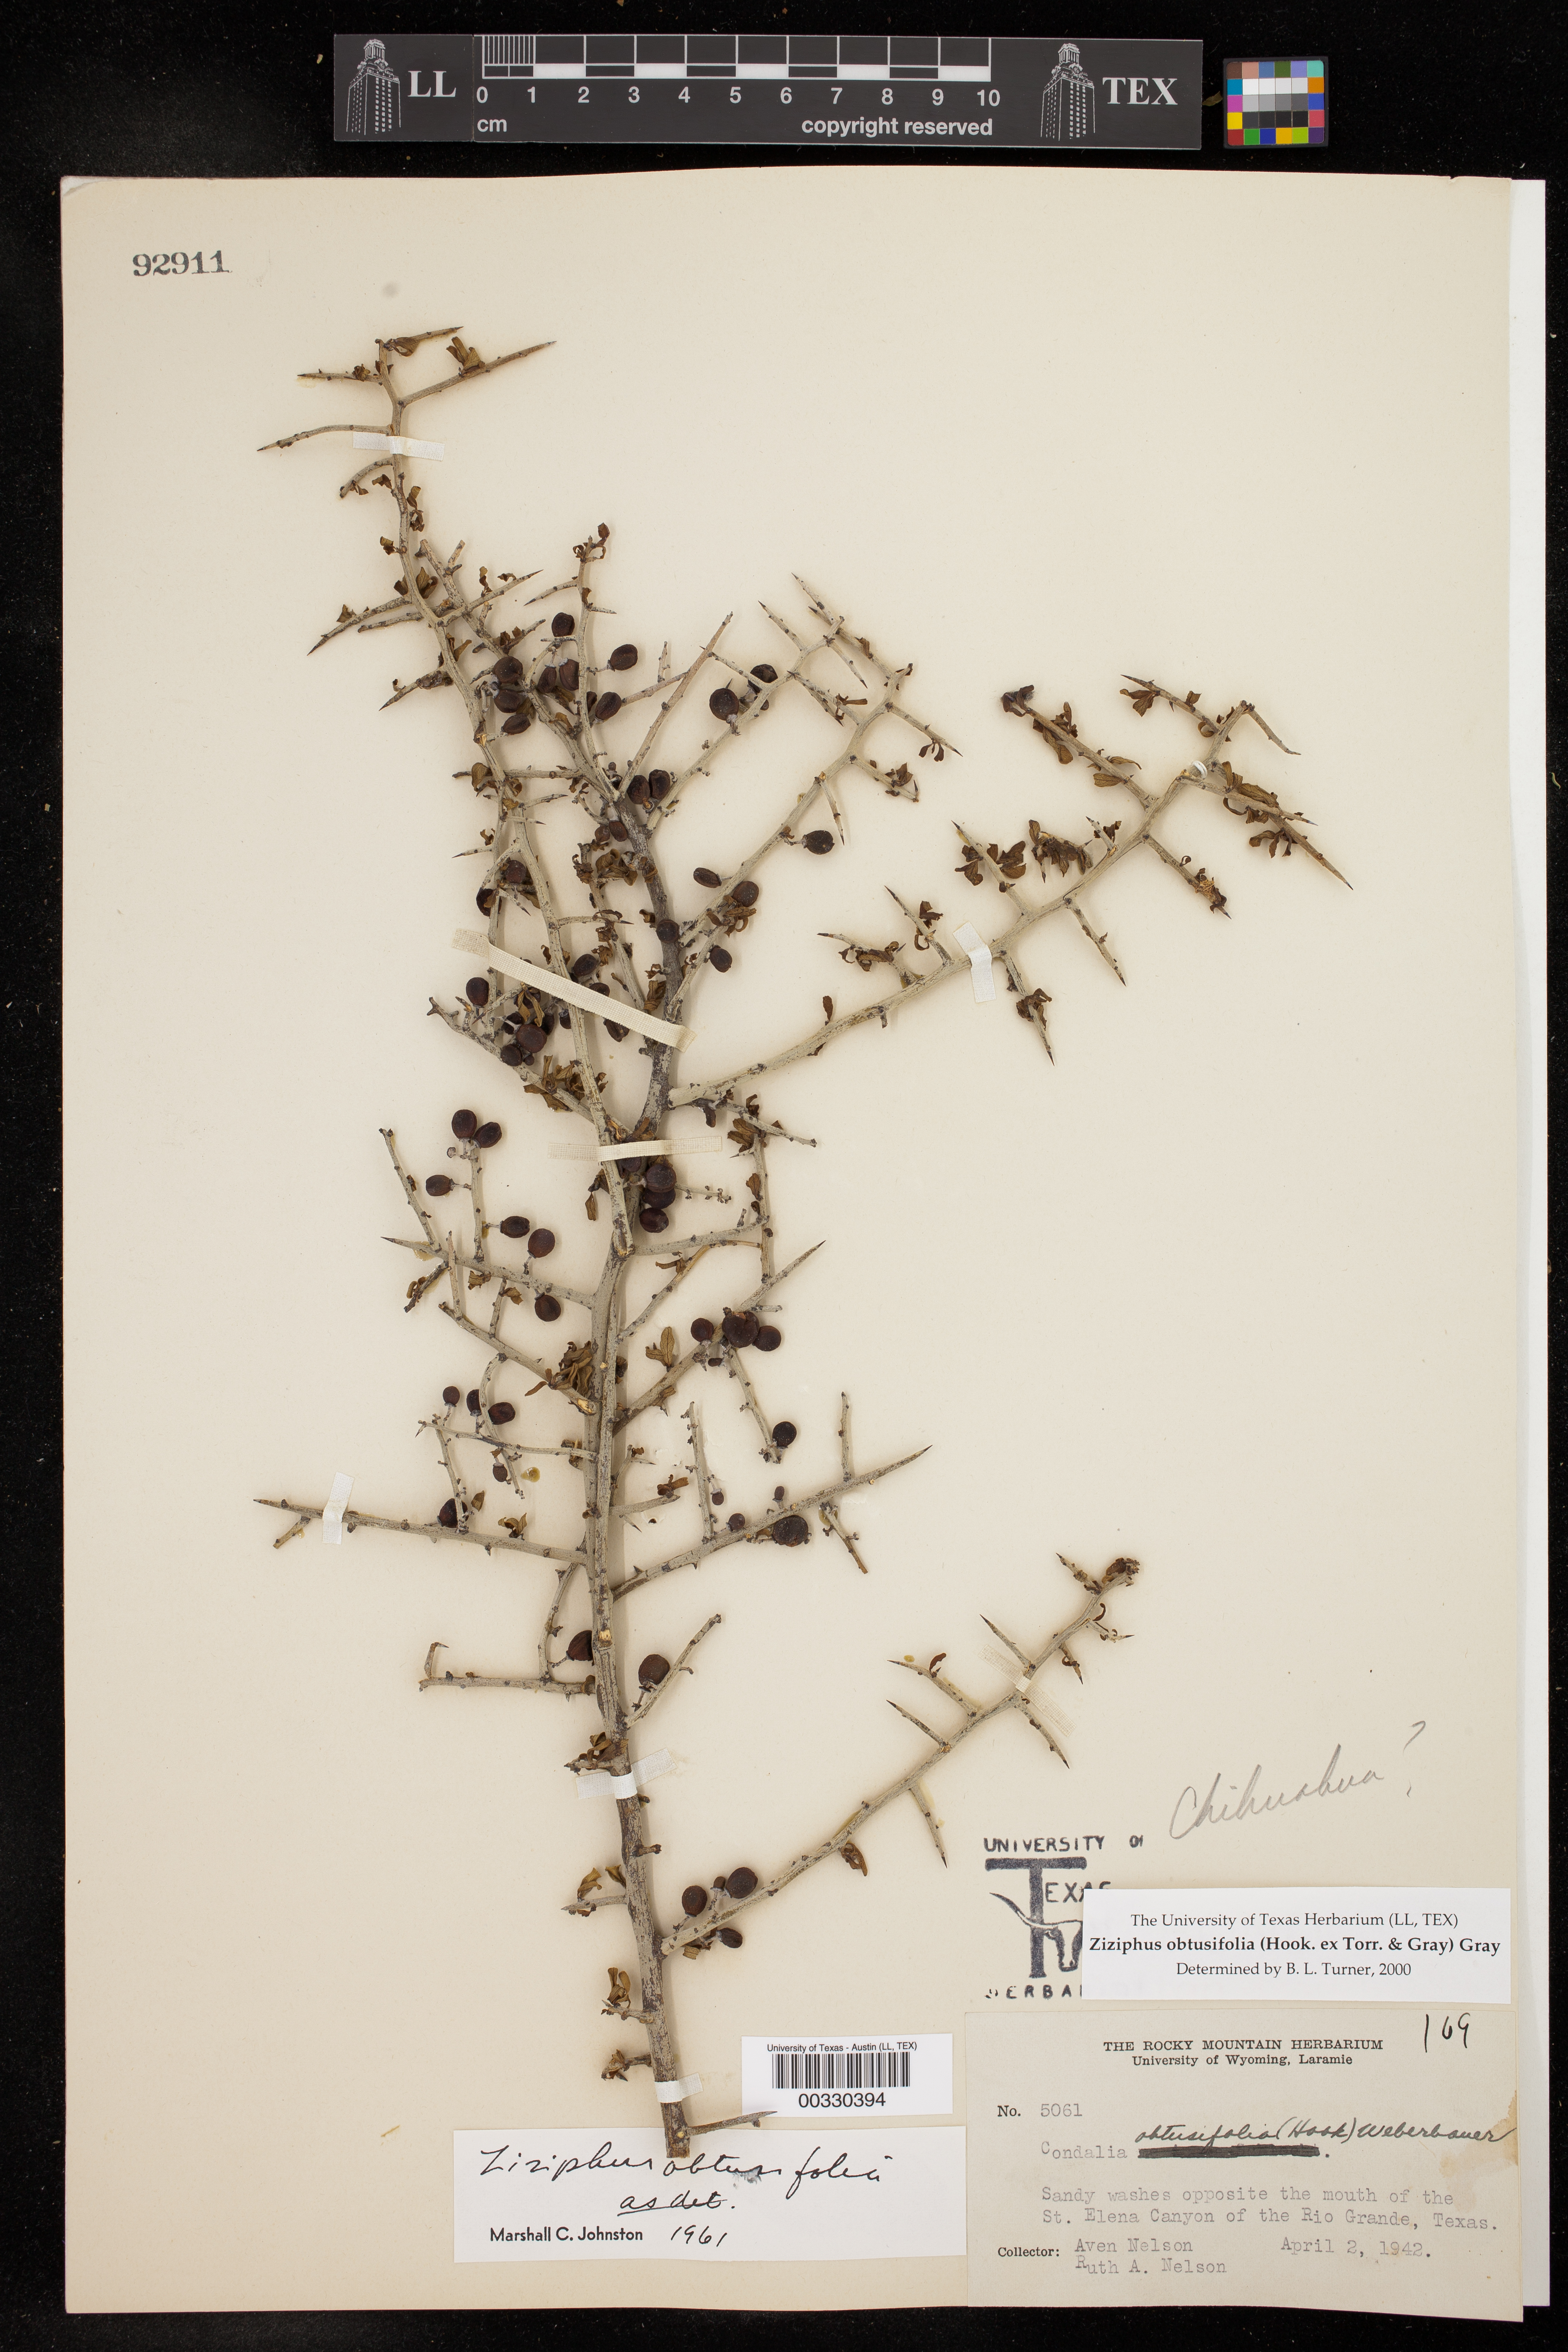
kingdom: Plantae
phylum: Tracheophyta
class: Magnoliopsida
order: Rosales
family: Rhamnaceae
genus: Sarcomphalus
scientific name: Sarcomphalus obtusifolius
